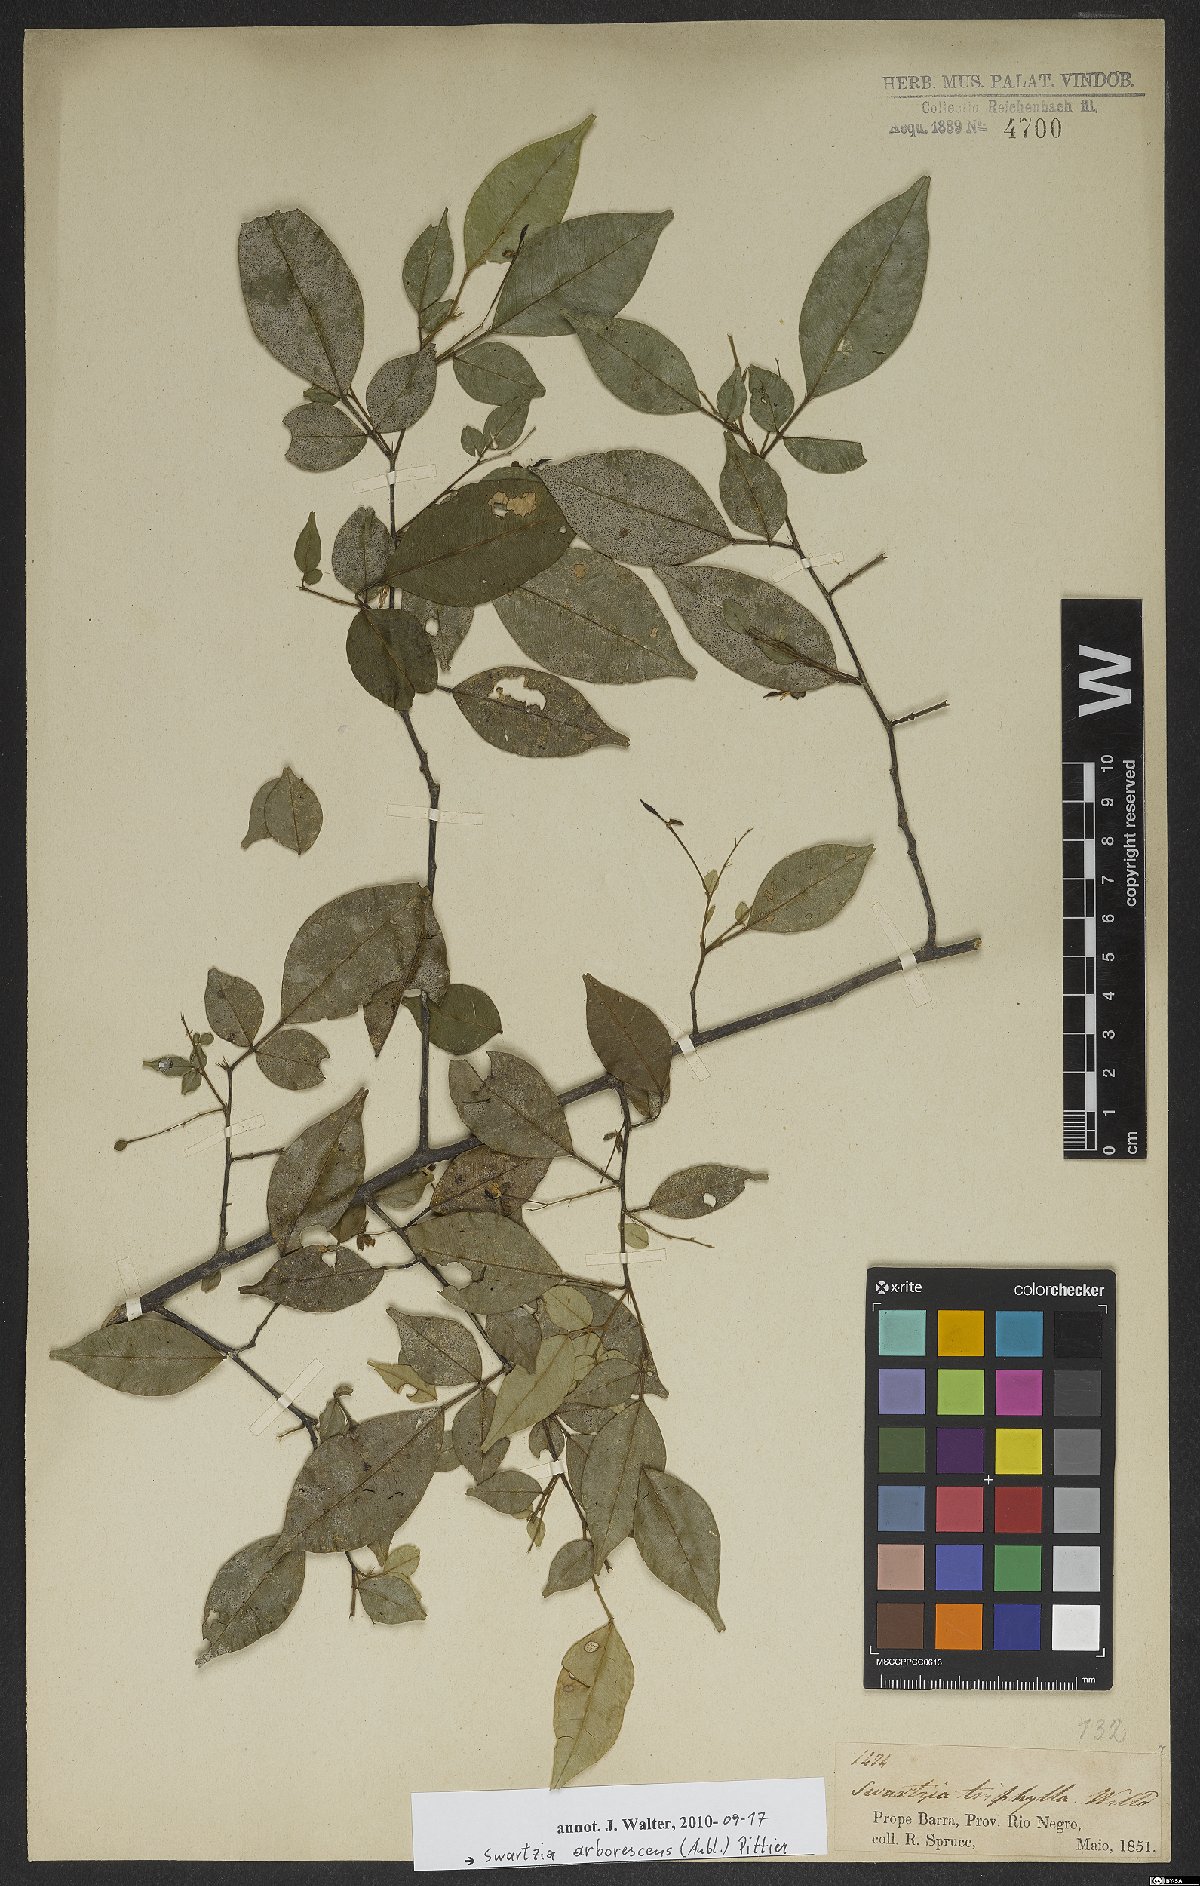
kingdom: Plantae
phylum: Tracheophyta
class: Magnoliopsida
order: Fabales
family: Fabaceae
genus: Swartzia
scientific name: Swartzia arborescens
